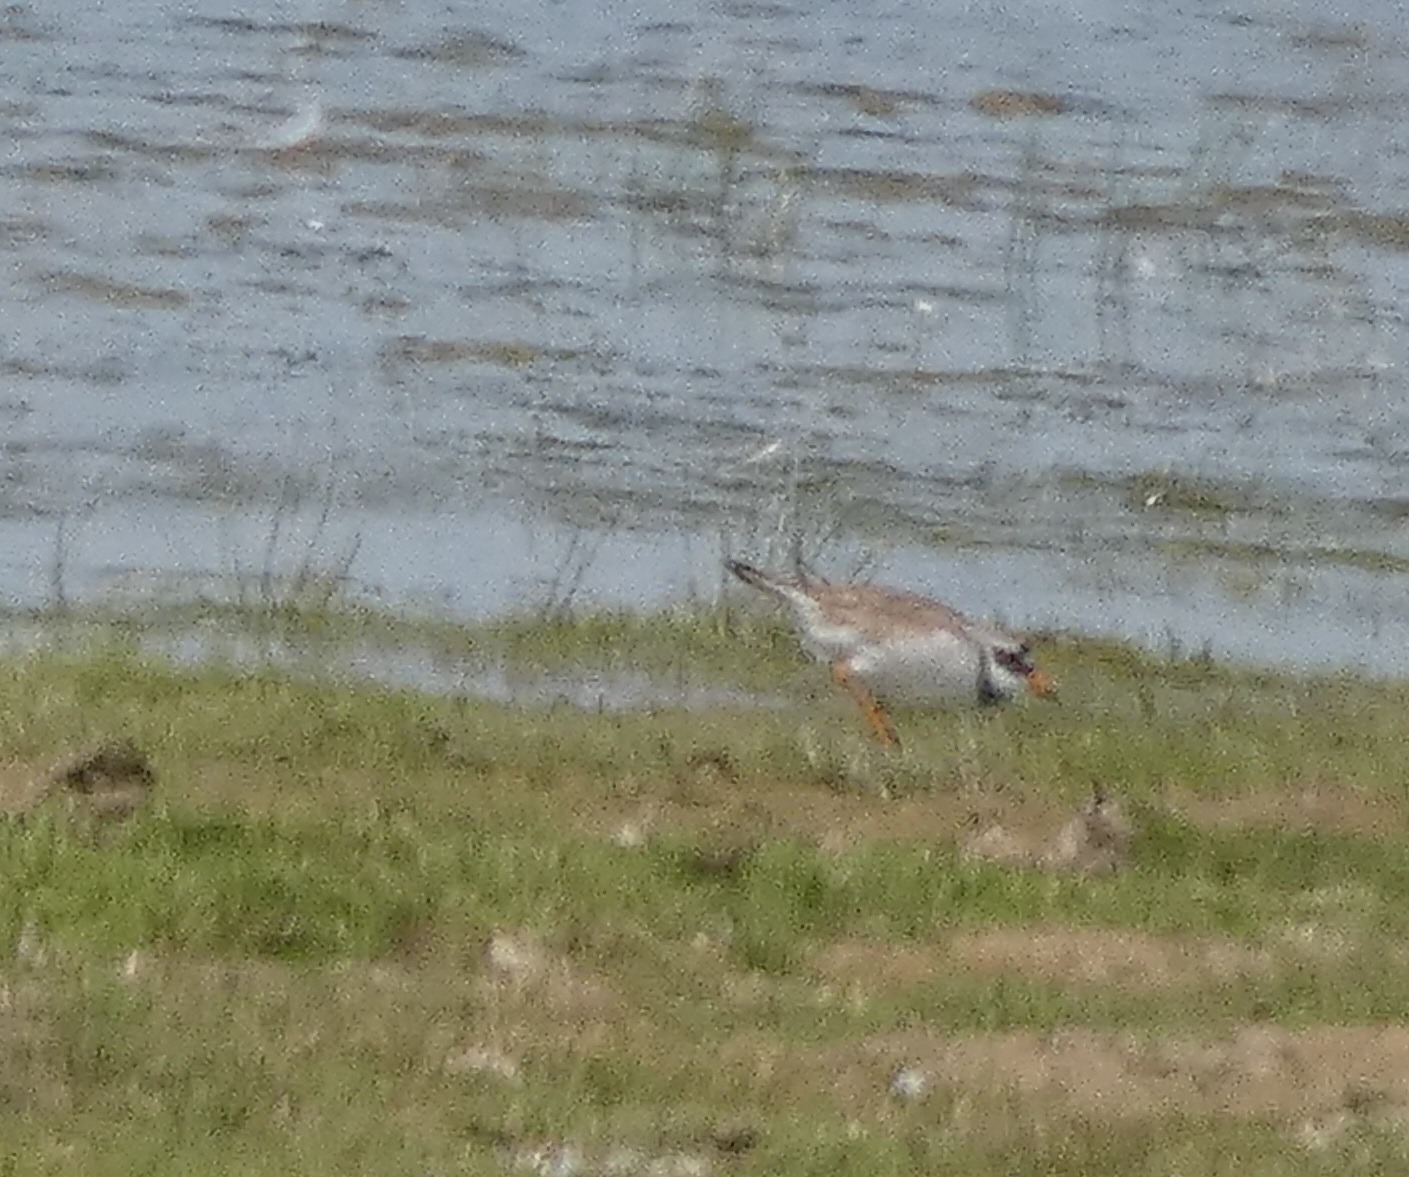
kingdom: Animalia
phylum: Chordata
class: Aves
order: Charadriiformes
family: Charadriidae
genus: Charadrius
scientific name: Charadrius hiaticula
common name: Stor præstekrave
